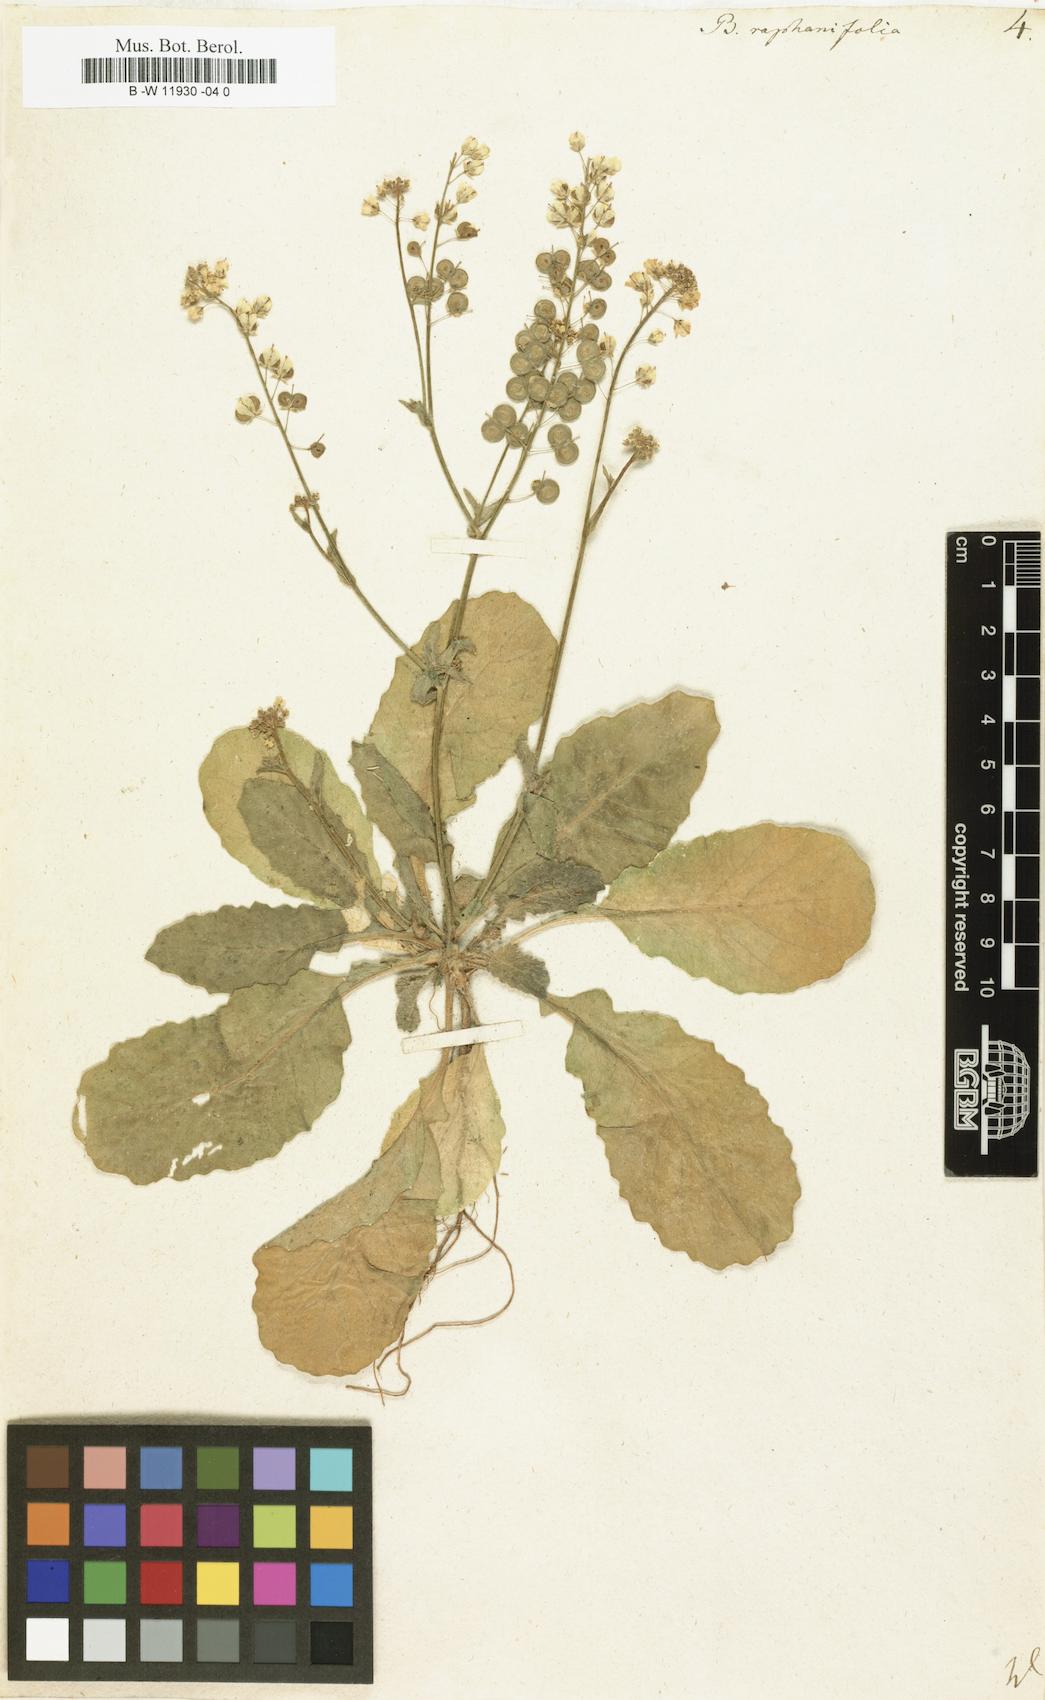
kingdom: Plantae
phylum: Tracheophyta
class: Magnoliopsida
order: Brassicales
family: Brassicaceae
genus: Biscutella
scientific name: Biscutella raphanifolia
